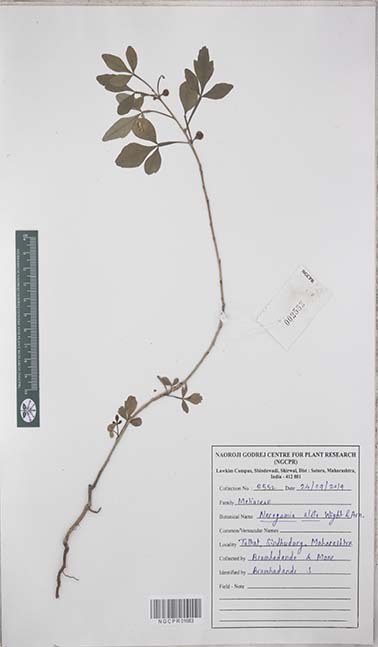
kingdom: Plantae
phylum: Tracheophyta
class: Magnoliopsida
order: Sapindales
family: Meliaceae
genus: Naregamia
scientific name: Naregamia alata
